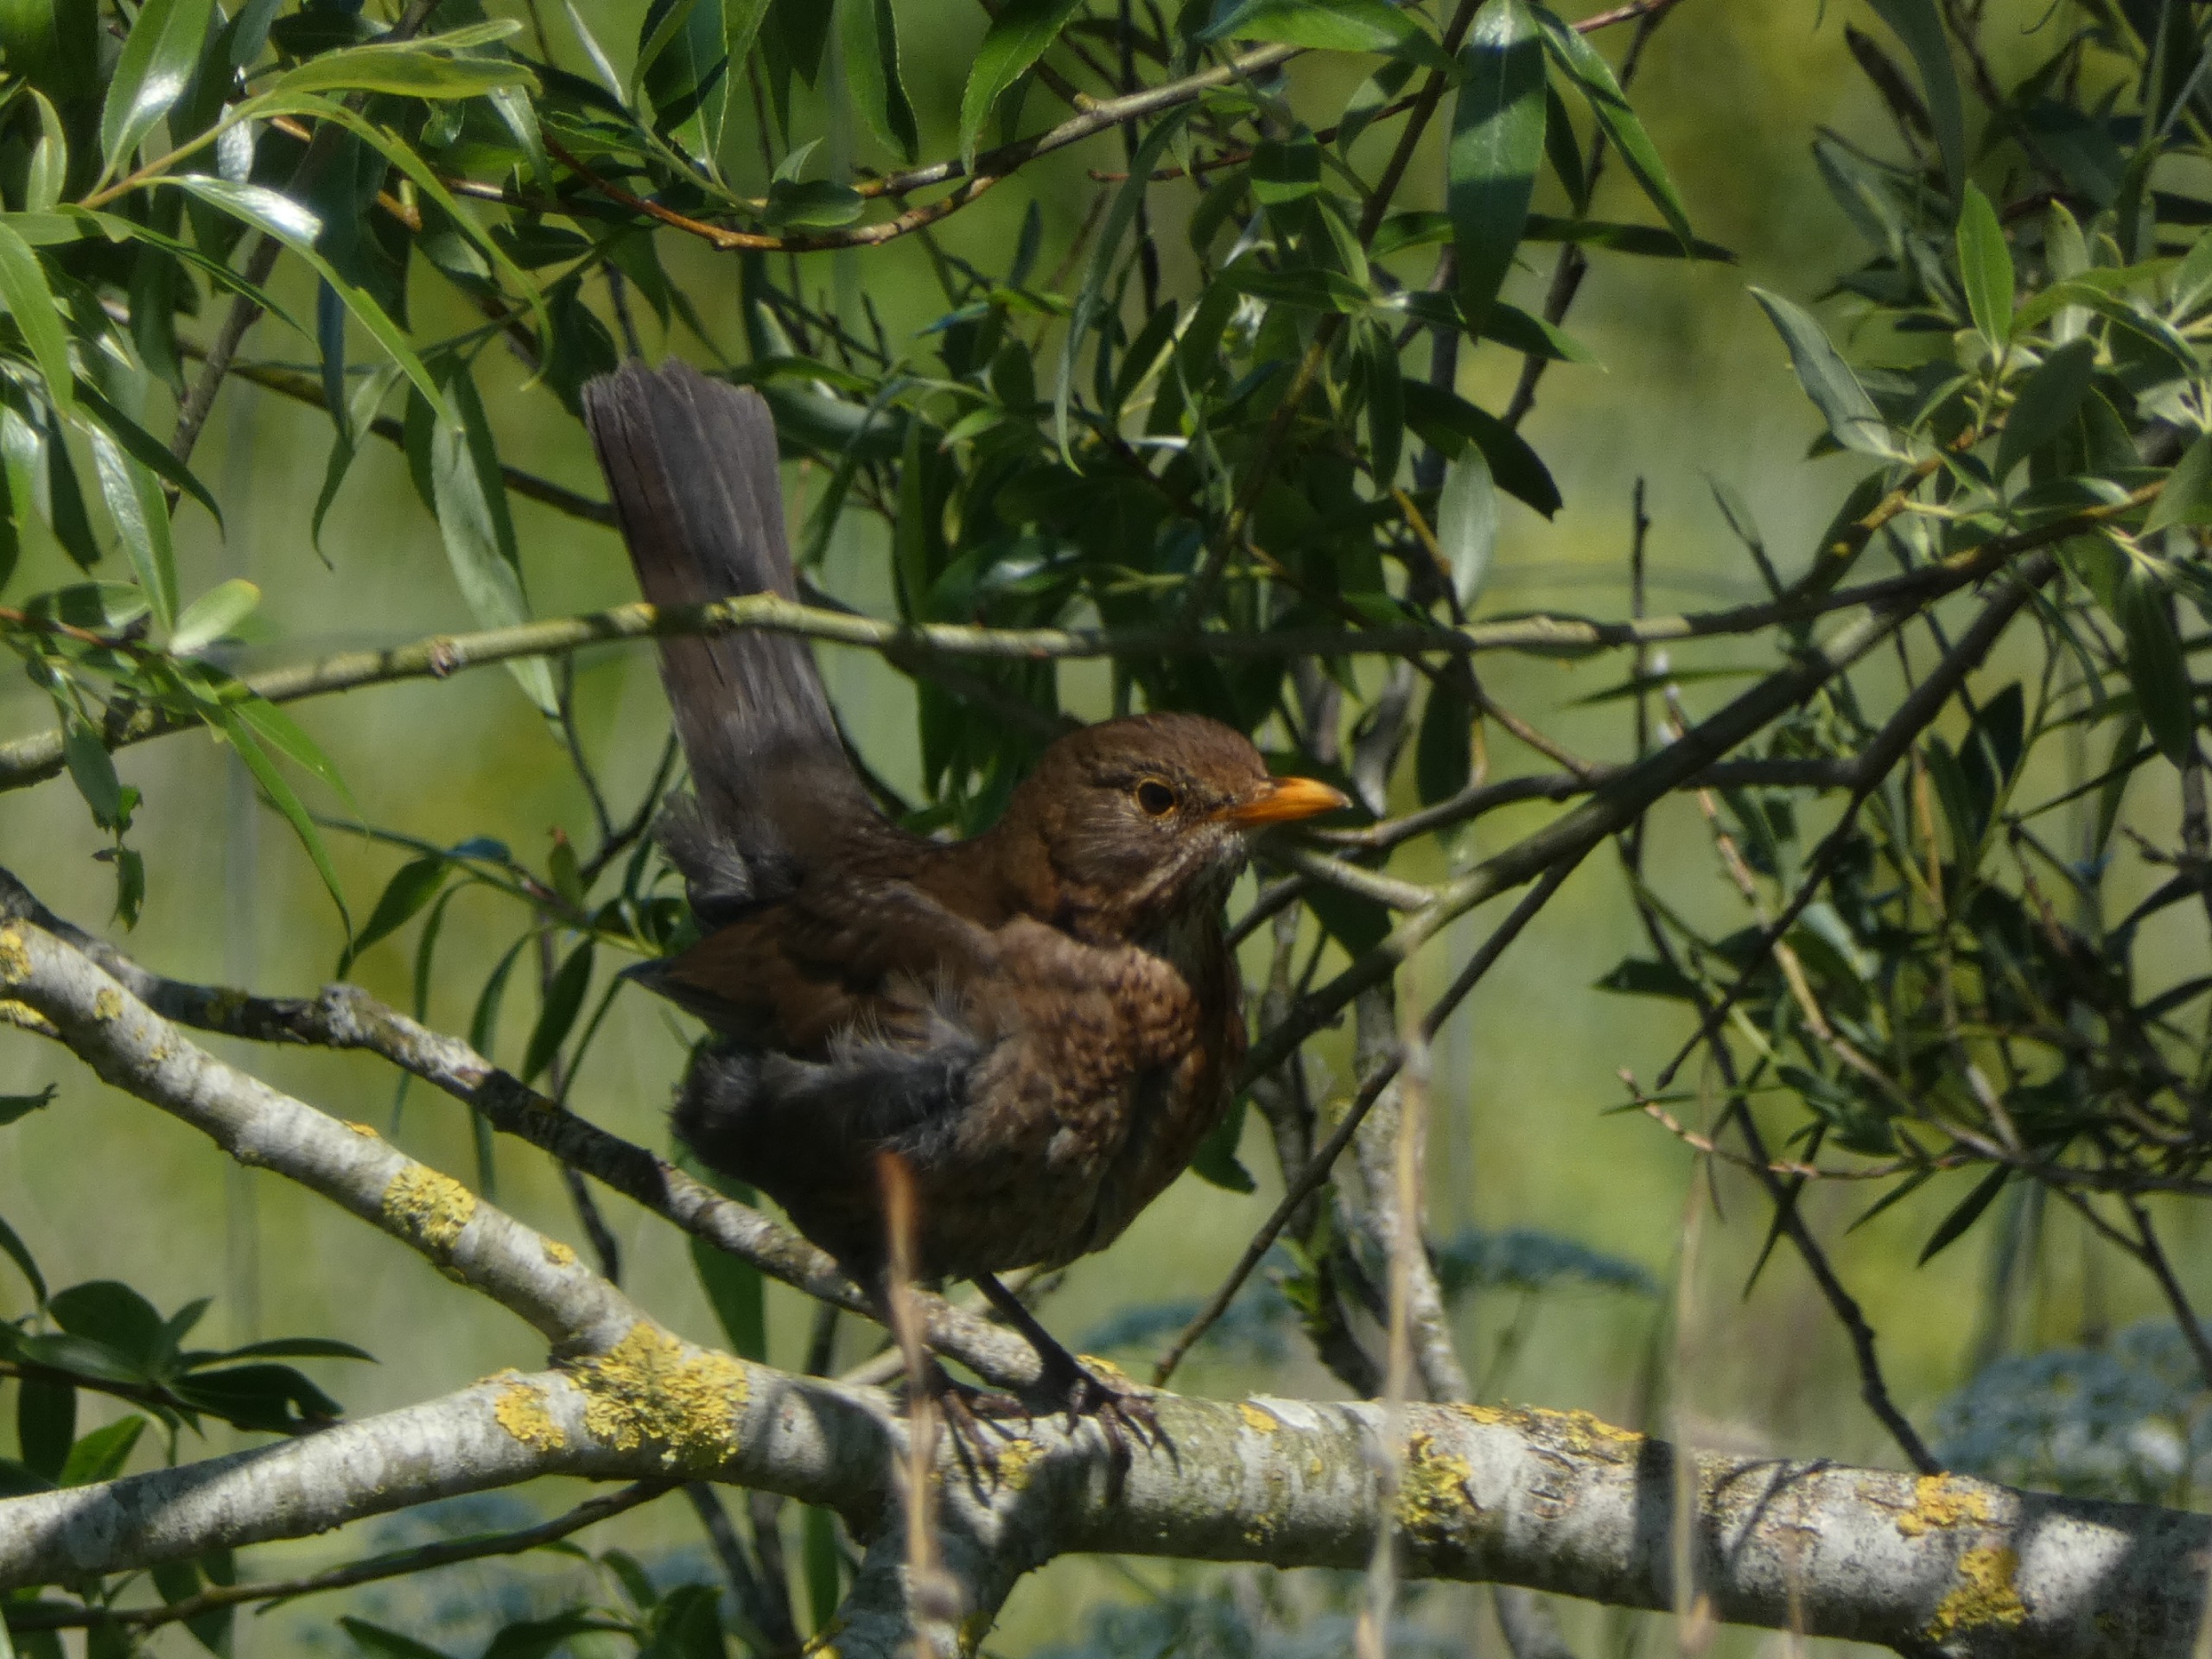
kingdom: Animalia
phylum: Chordata
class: Aves
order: Passeriformes
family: Turdidae
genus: Turdus
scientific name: Turdus merula
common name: Solsort
